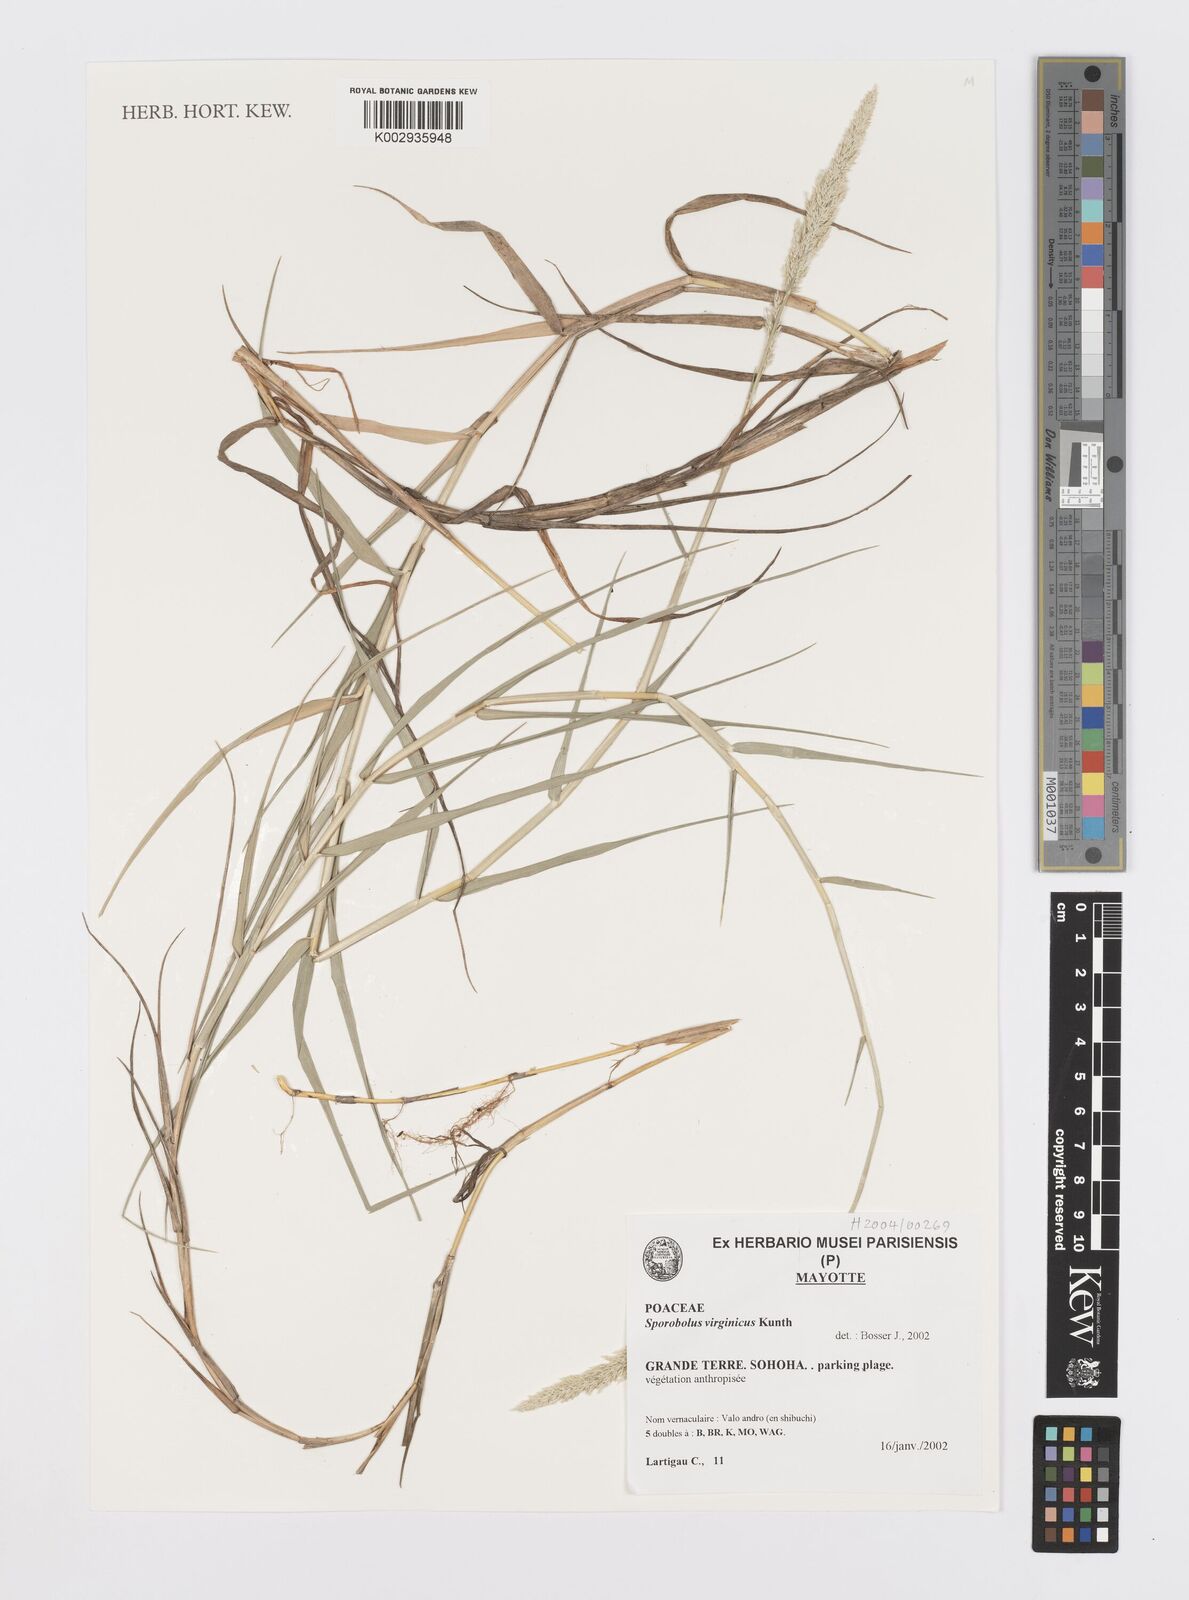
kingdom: Plantae
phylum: Tracheophyta
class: Liliopsida
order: Poales
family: Poaceae
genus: Sporobolus
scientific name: Sporobolus virginicus
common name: Beach dropseed
